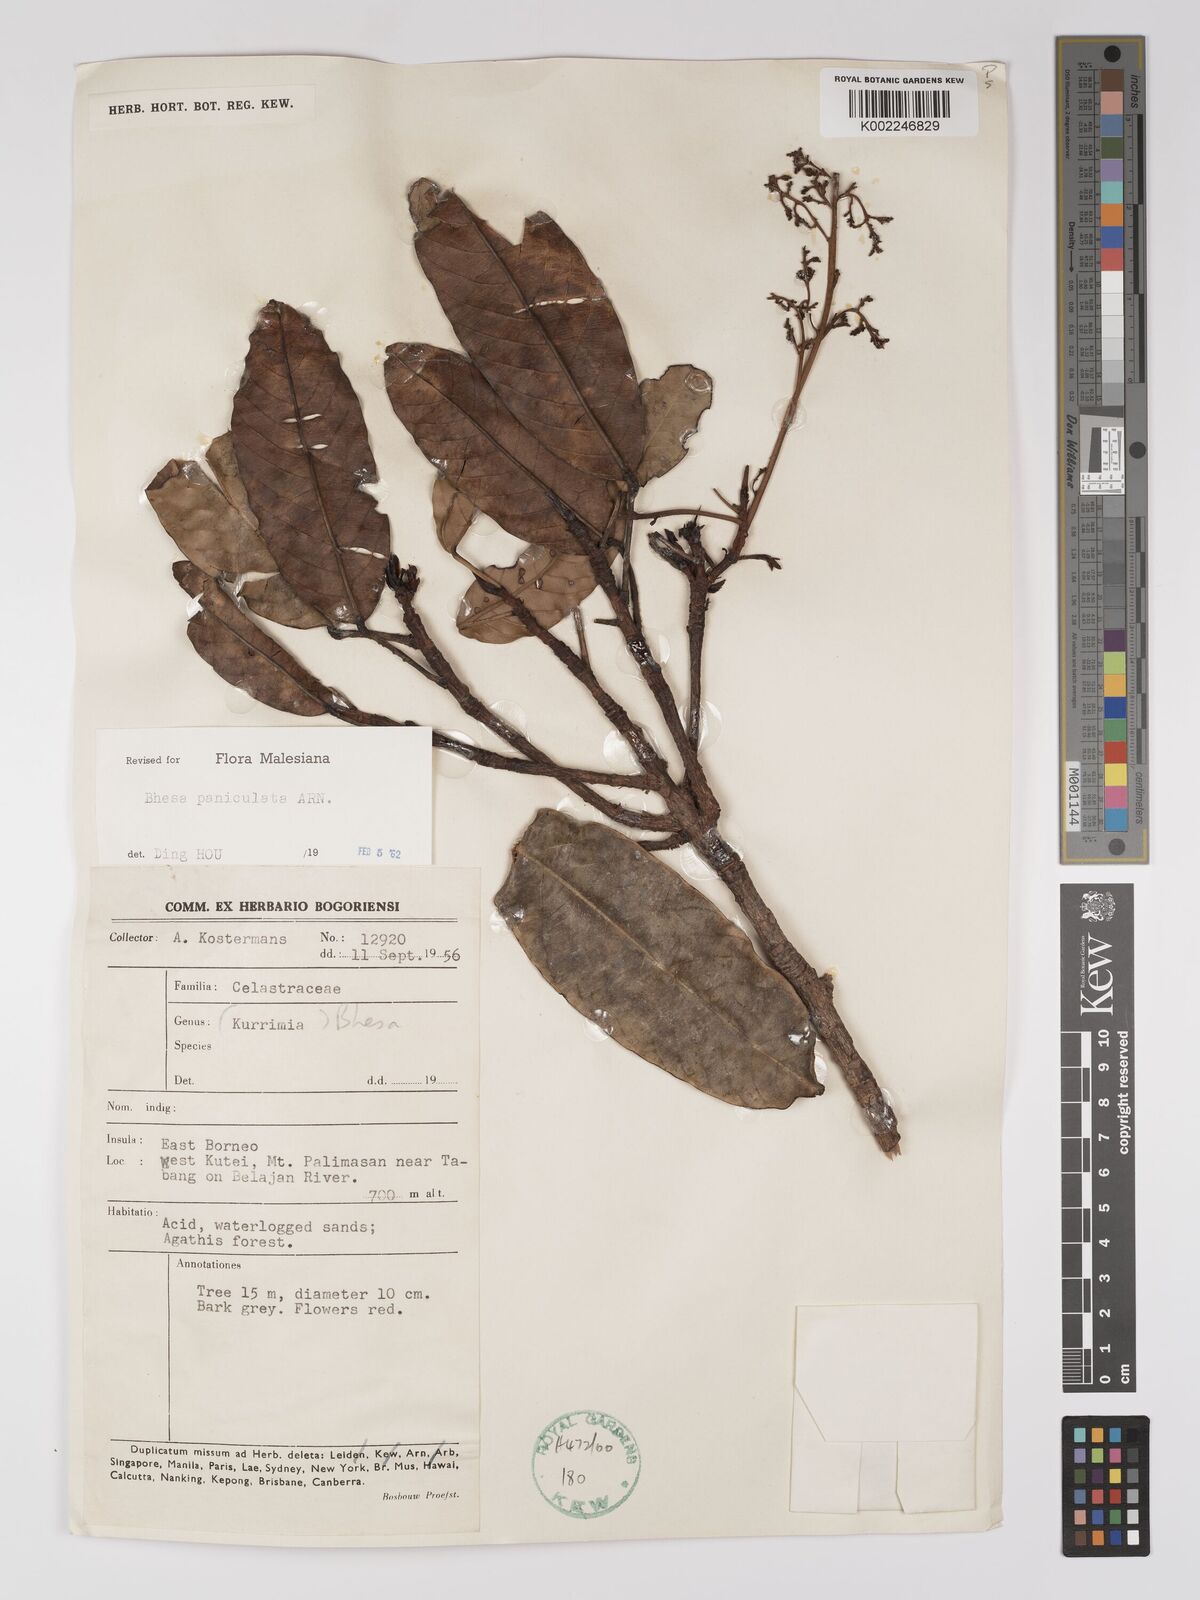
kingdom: Plantae
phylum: Tracheophyta
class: Magnoliopsida
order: Malpighiales
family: Centroplacaceae
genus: Bhesa
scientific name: Bhesa paniculata
